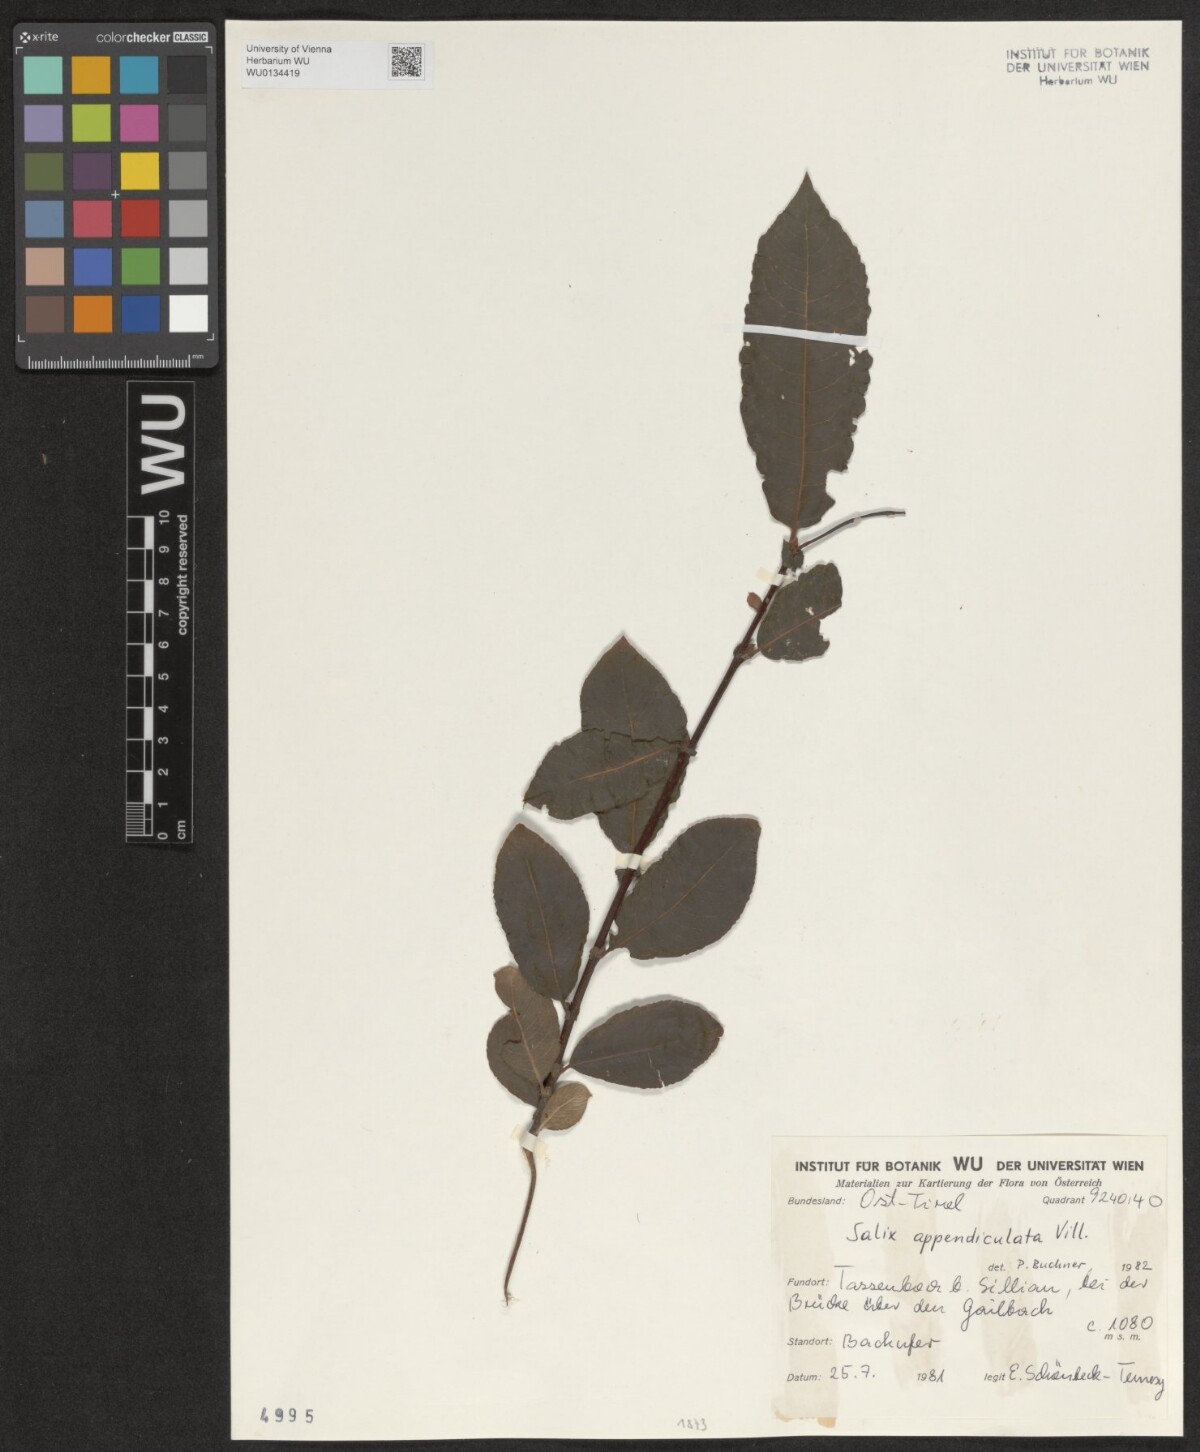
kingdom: Plantae
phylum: Tracheophyta
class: Magnoliopsida
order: Malpighiales
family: Salicaceae
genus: Salix
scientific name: Salix appendiculata
